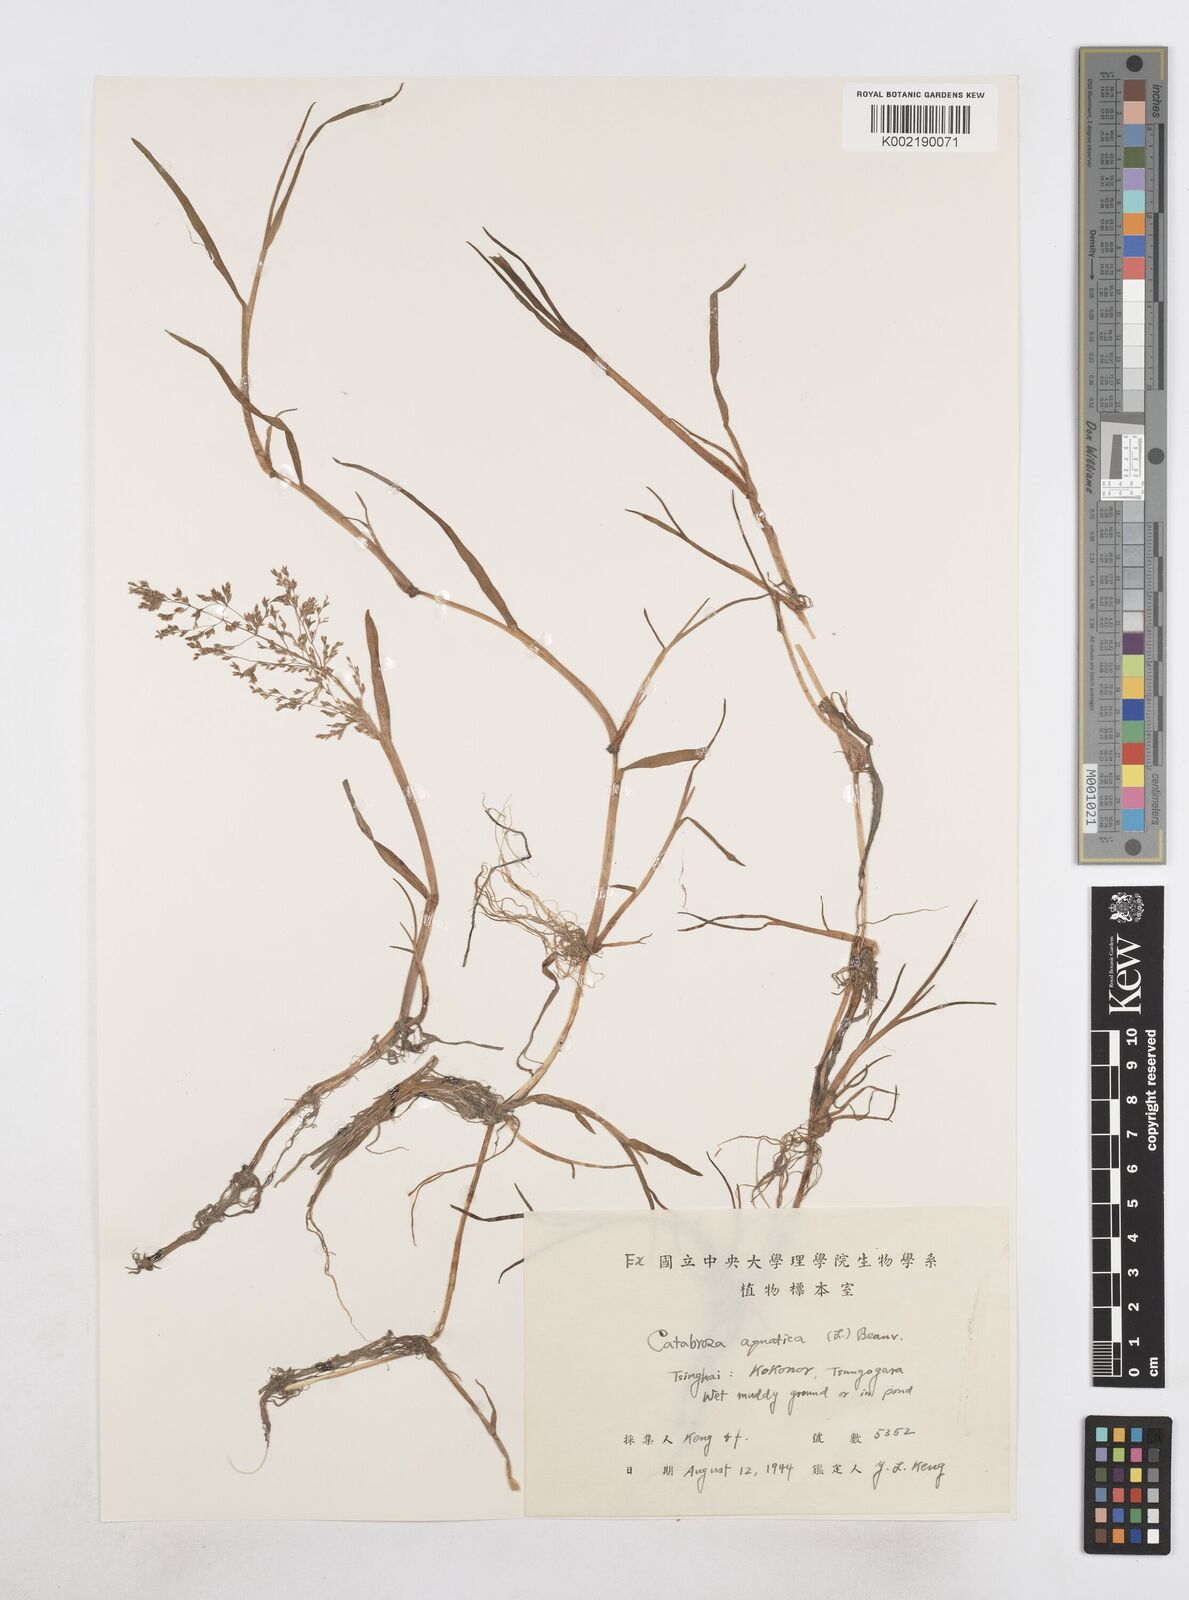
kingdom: Plantae
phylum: Tracheophyta
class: Liliopsida
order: Poales
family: Poaceae
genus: Catabrosa
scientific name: Catabrosa aquatica
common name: Whorl-grass
